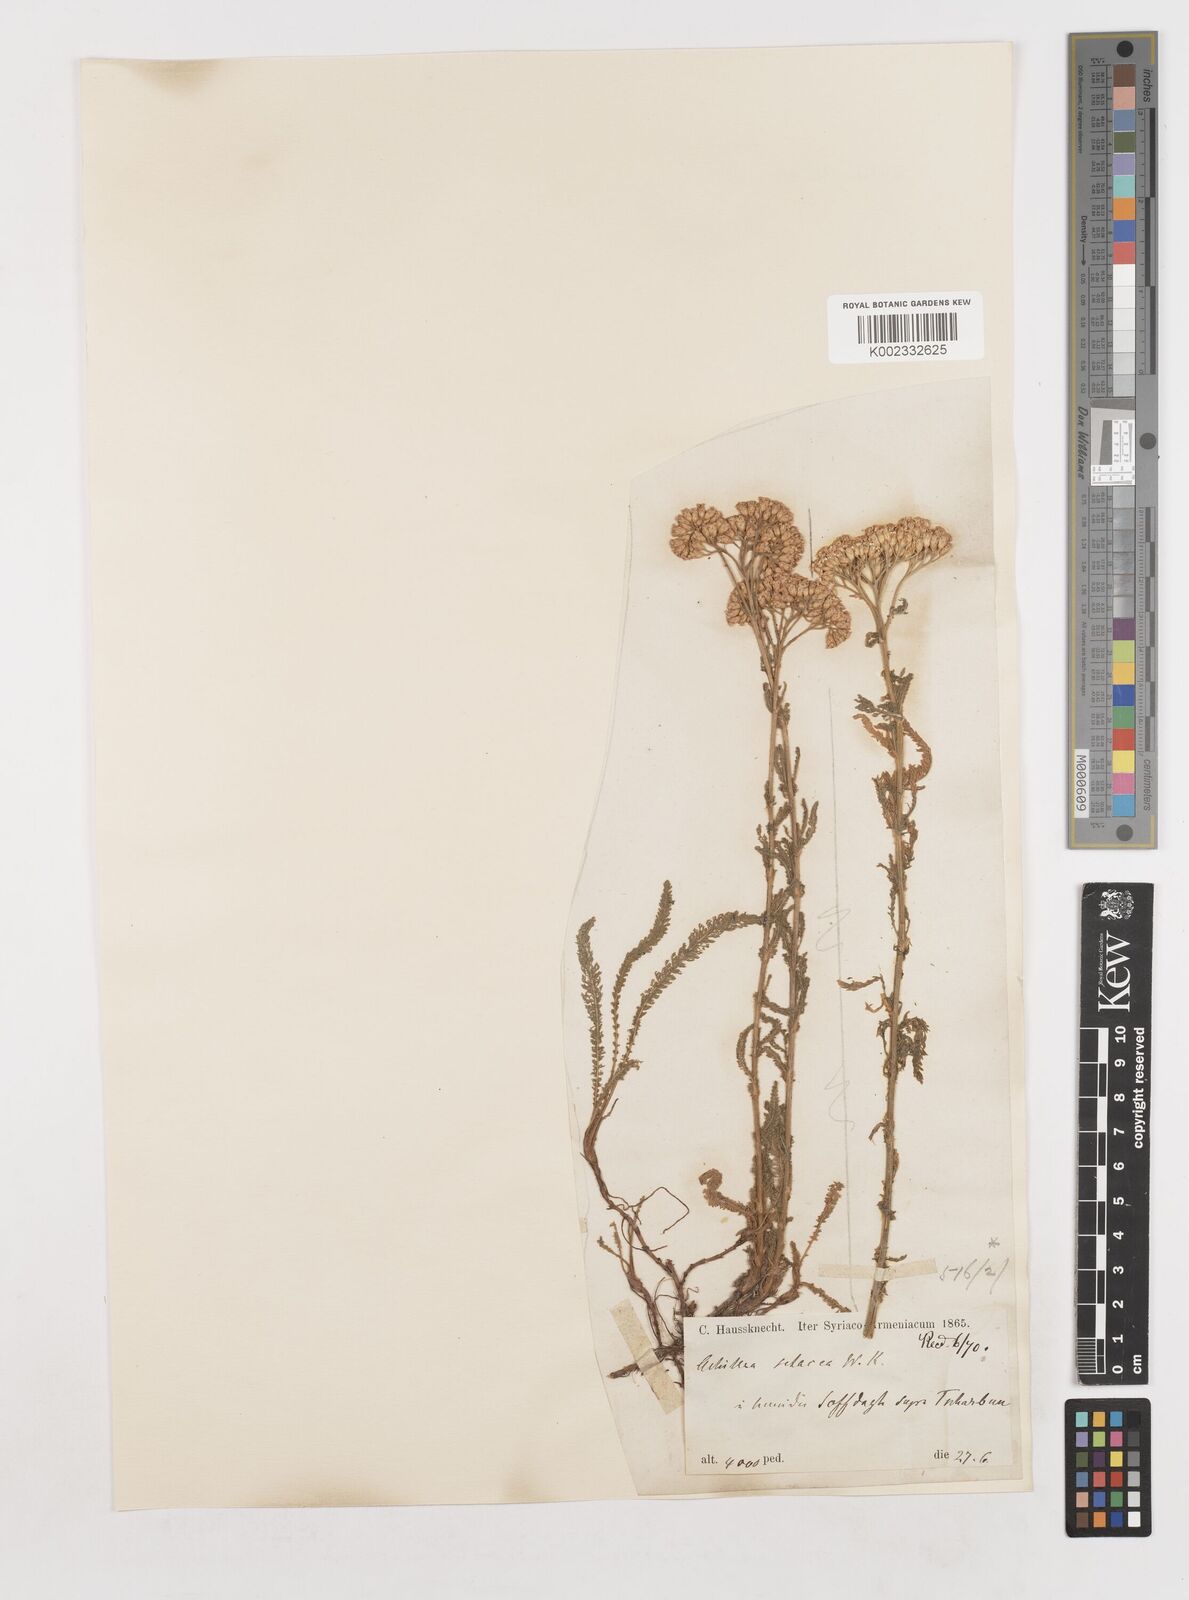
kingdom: Plantae
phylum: Tracheophyta
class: Magnoliopsida
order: Asterales
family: Asteraceae
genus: Achillea
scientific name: Achillea setacea
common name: Bristly yarrow
